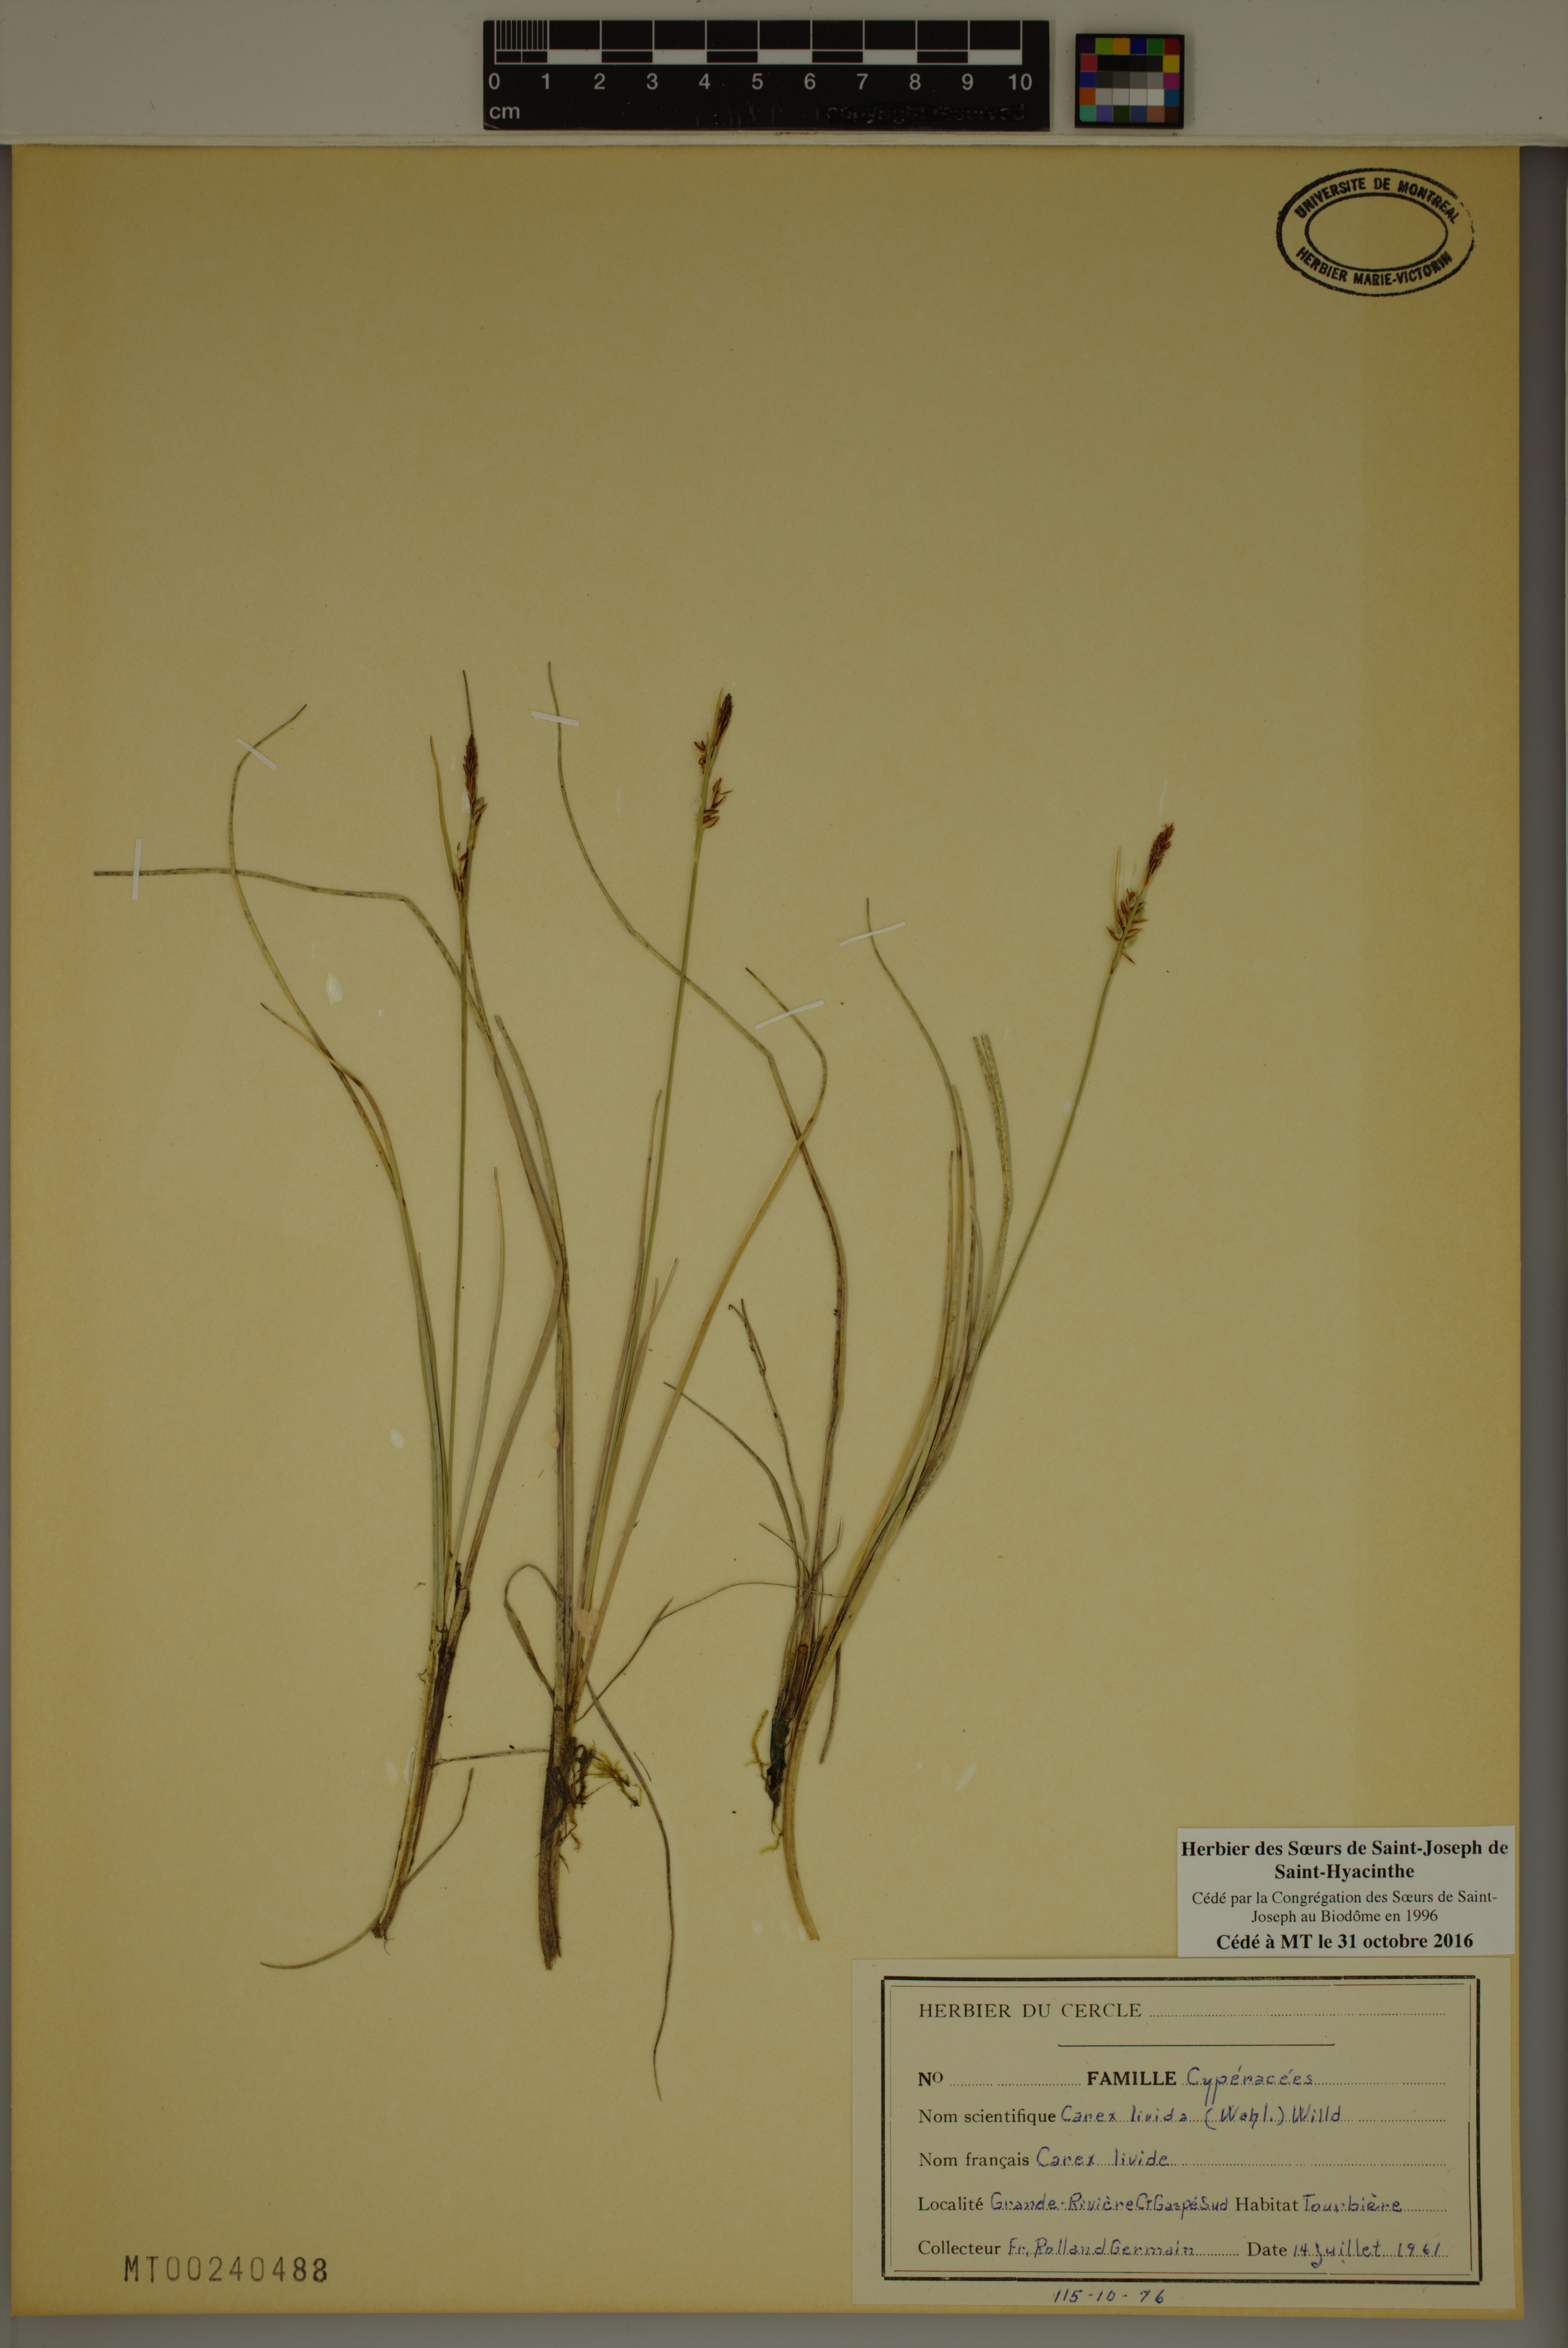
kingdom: Plantae
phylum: Tracheophyta
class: Liliopsida
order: Poales
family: Cyperaceae
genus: Carex
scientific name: Carex livida
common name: Livid sedge
